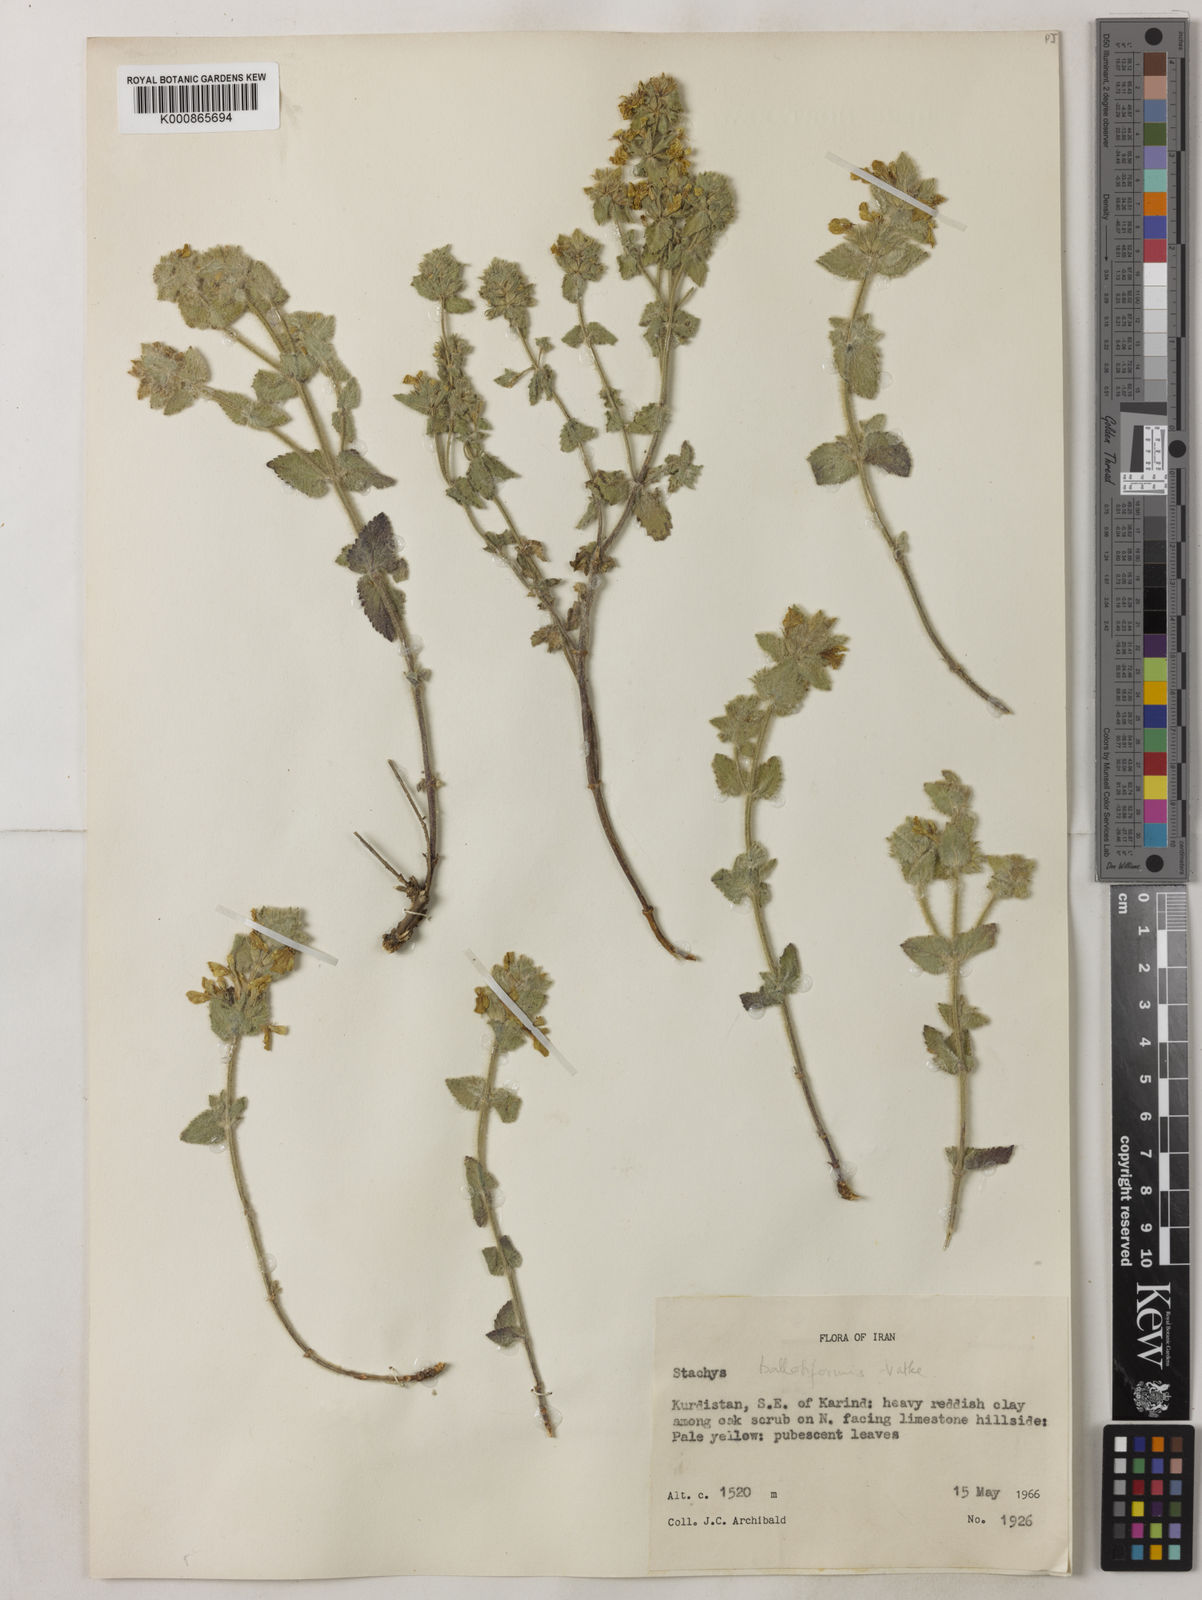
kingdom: Plantae
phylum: Tracheophyta
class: Magnoliopsida
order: Lamiales
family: Lamiaceae
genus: Stachys
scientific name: Stachys
